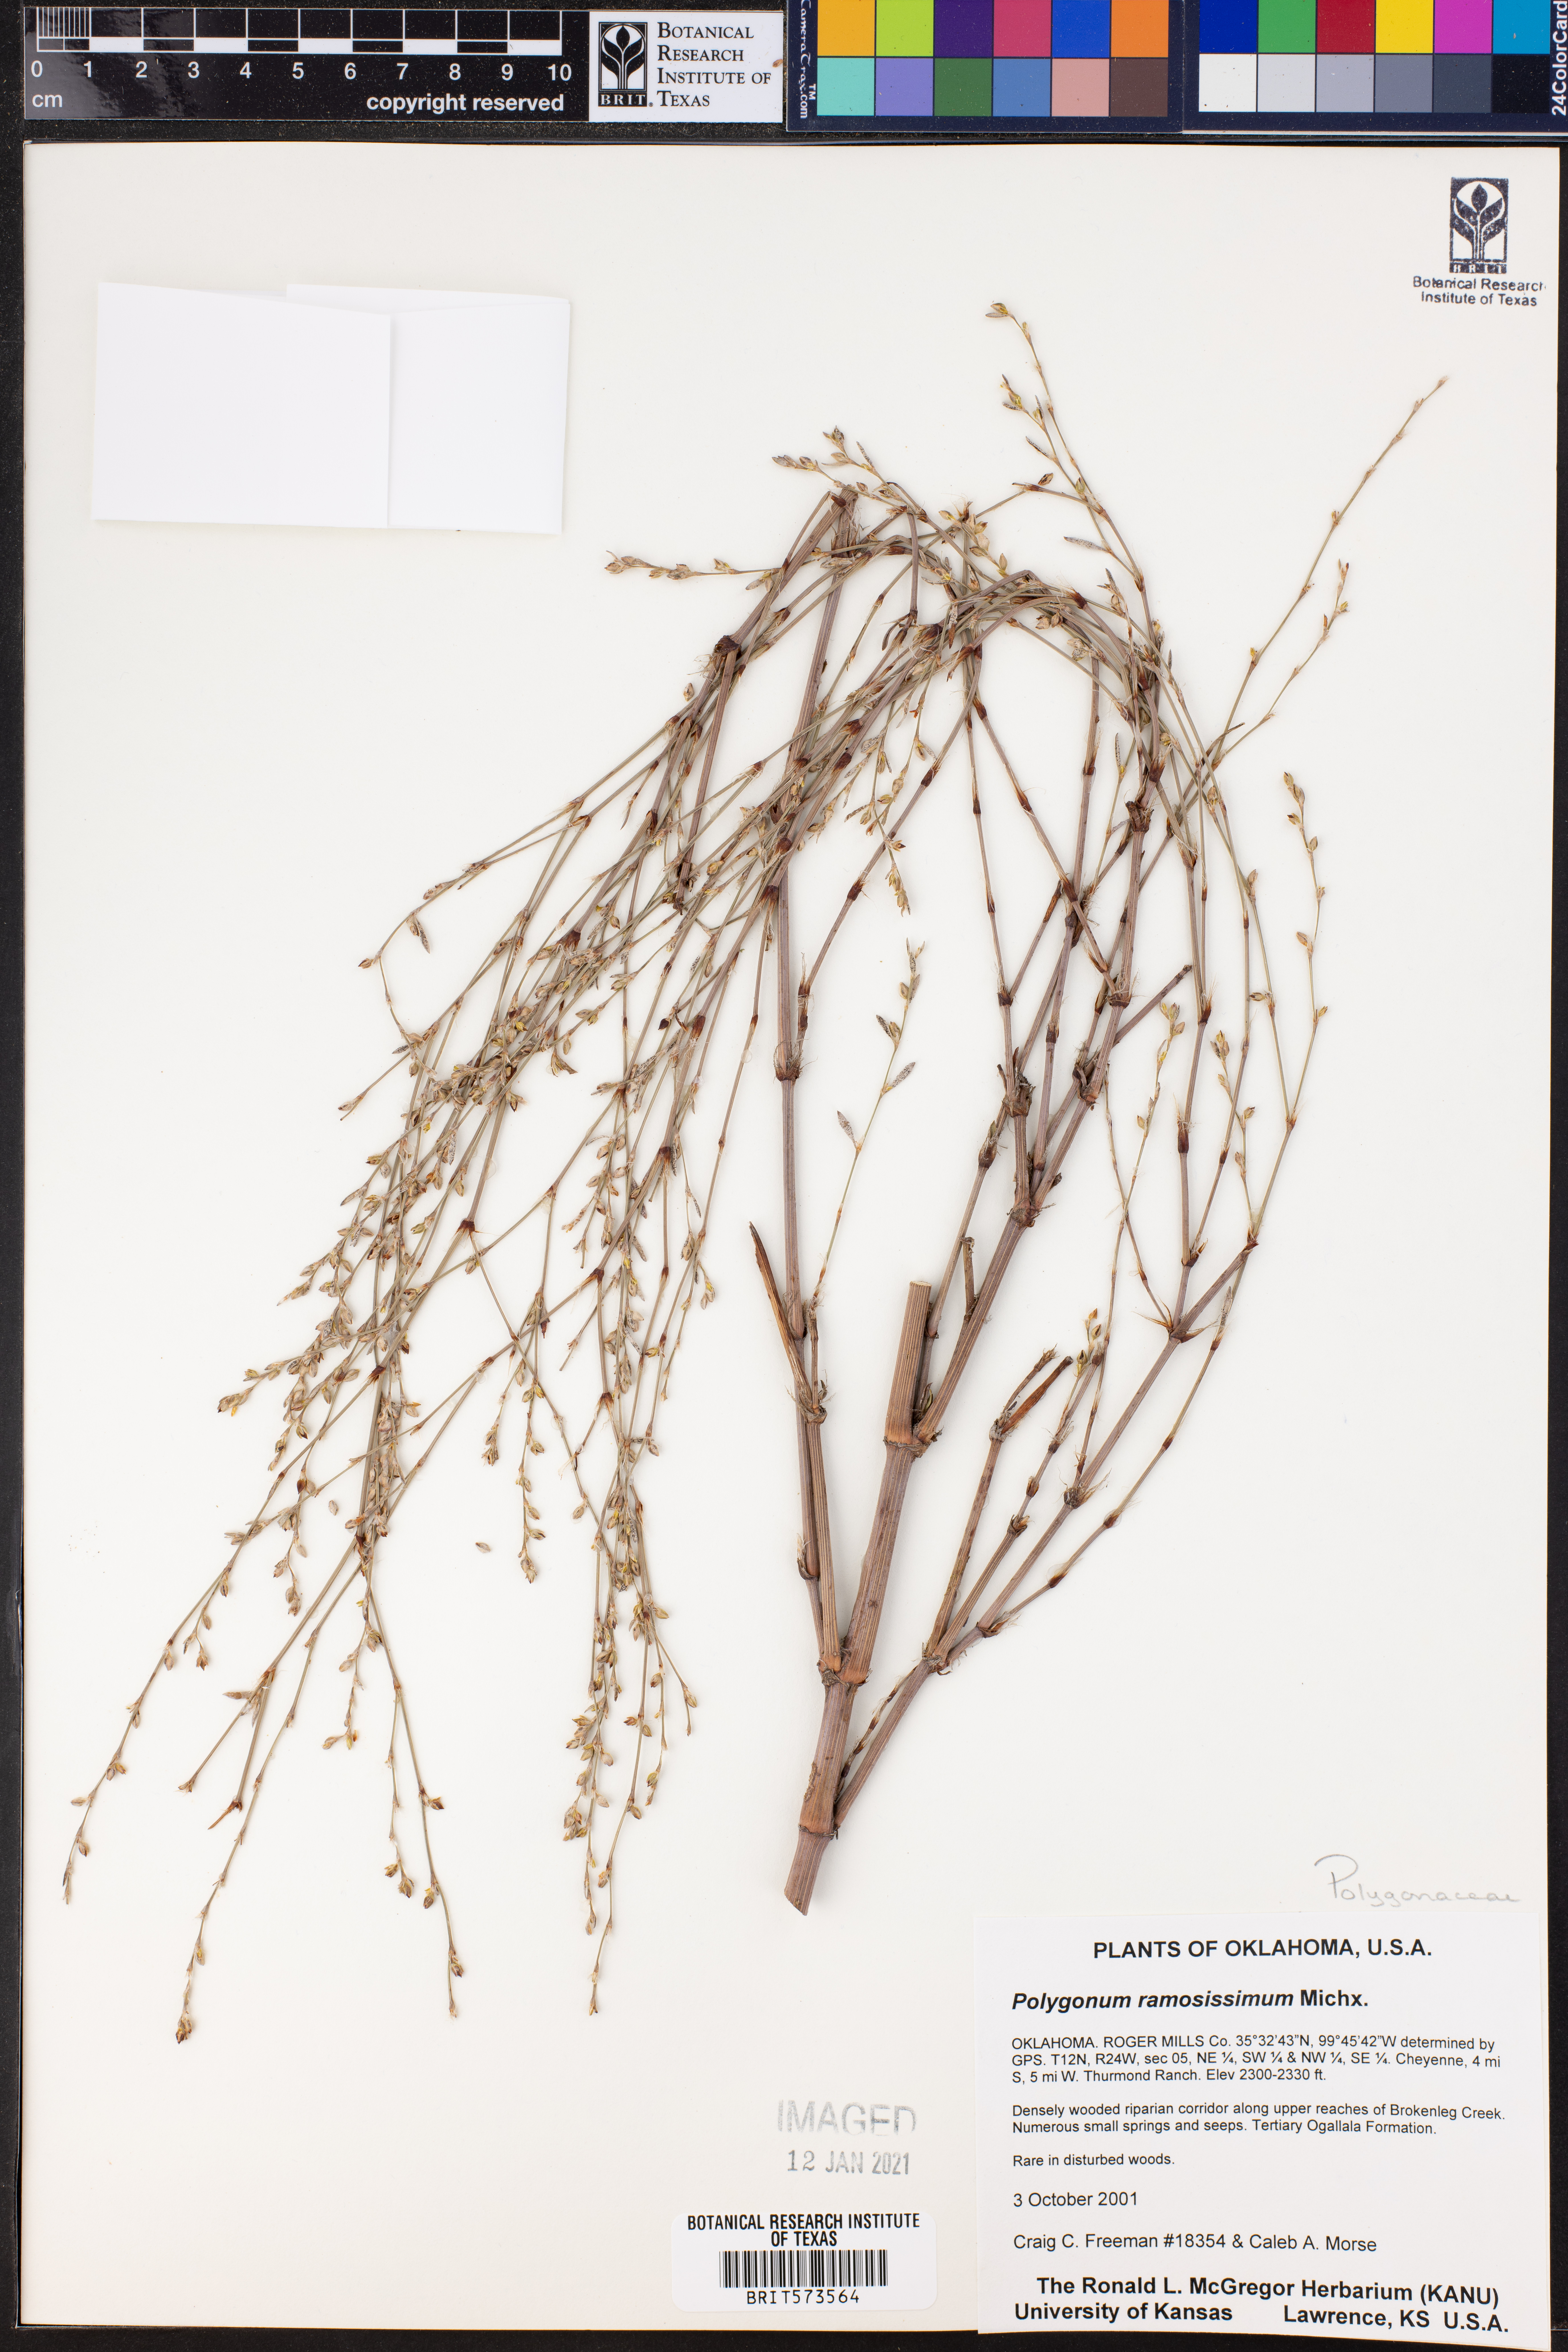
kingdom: Plantae
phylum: Tracheophyta
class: Magnoliopsida
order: Caryophyllales
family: Polygonaceae
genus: Polygonum
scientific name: Polygonum ramosissimum
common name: Bushy knotweed
